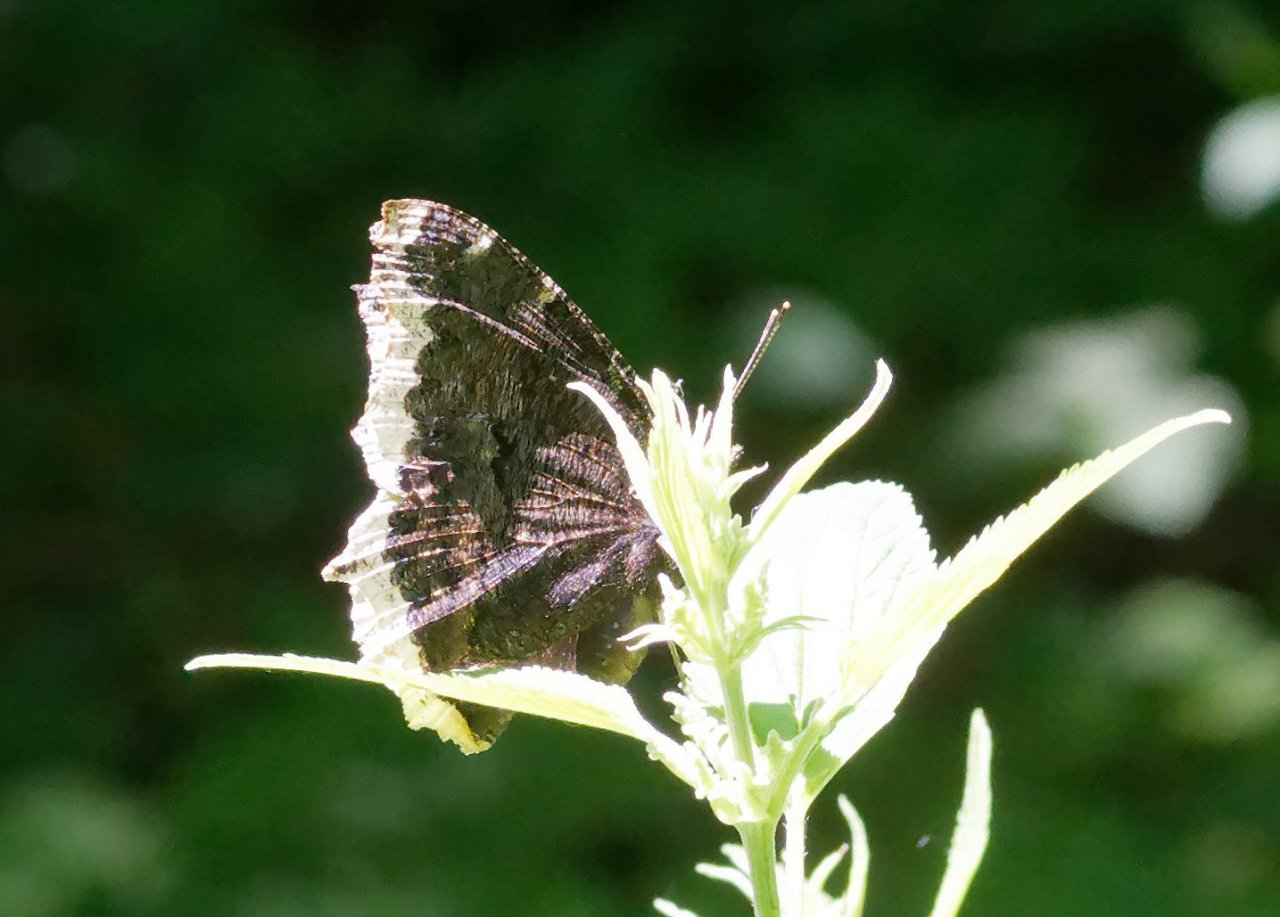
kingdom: Animalia
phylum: Arthropoda
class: Insecta
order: Lepidoptera
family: Nymphalidae
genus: Nymphalis
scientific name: Nymphalis antiopa
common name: Mourning Cloak
